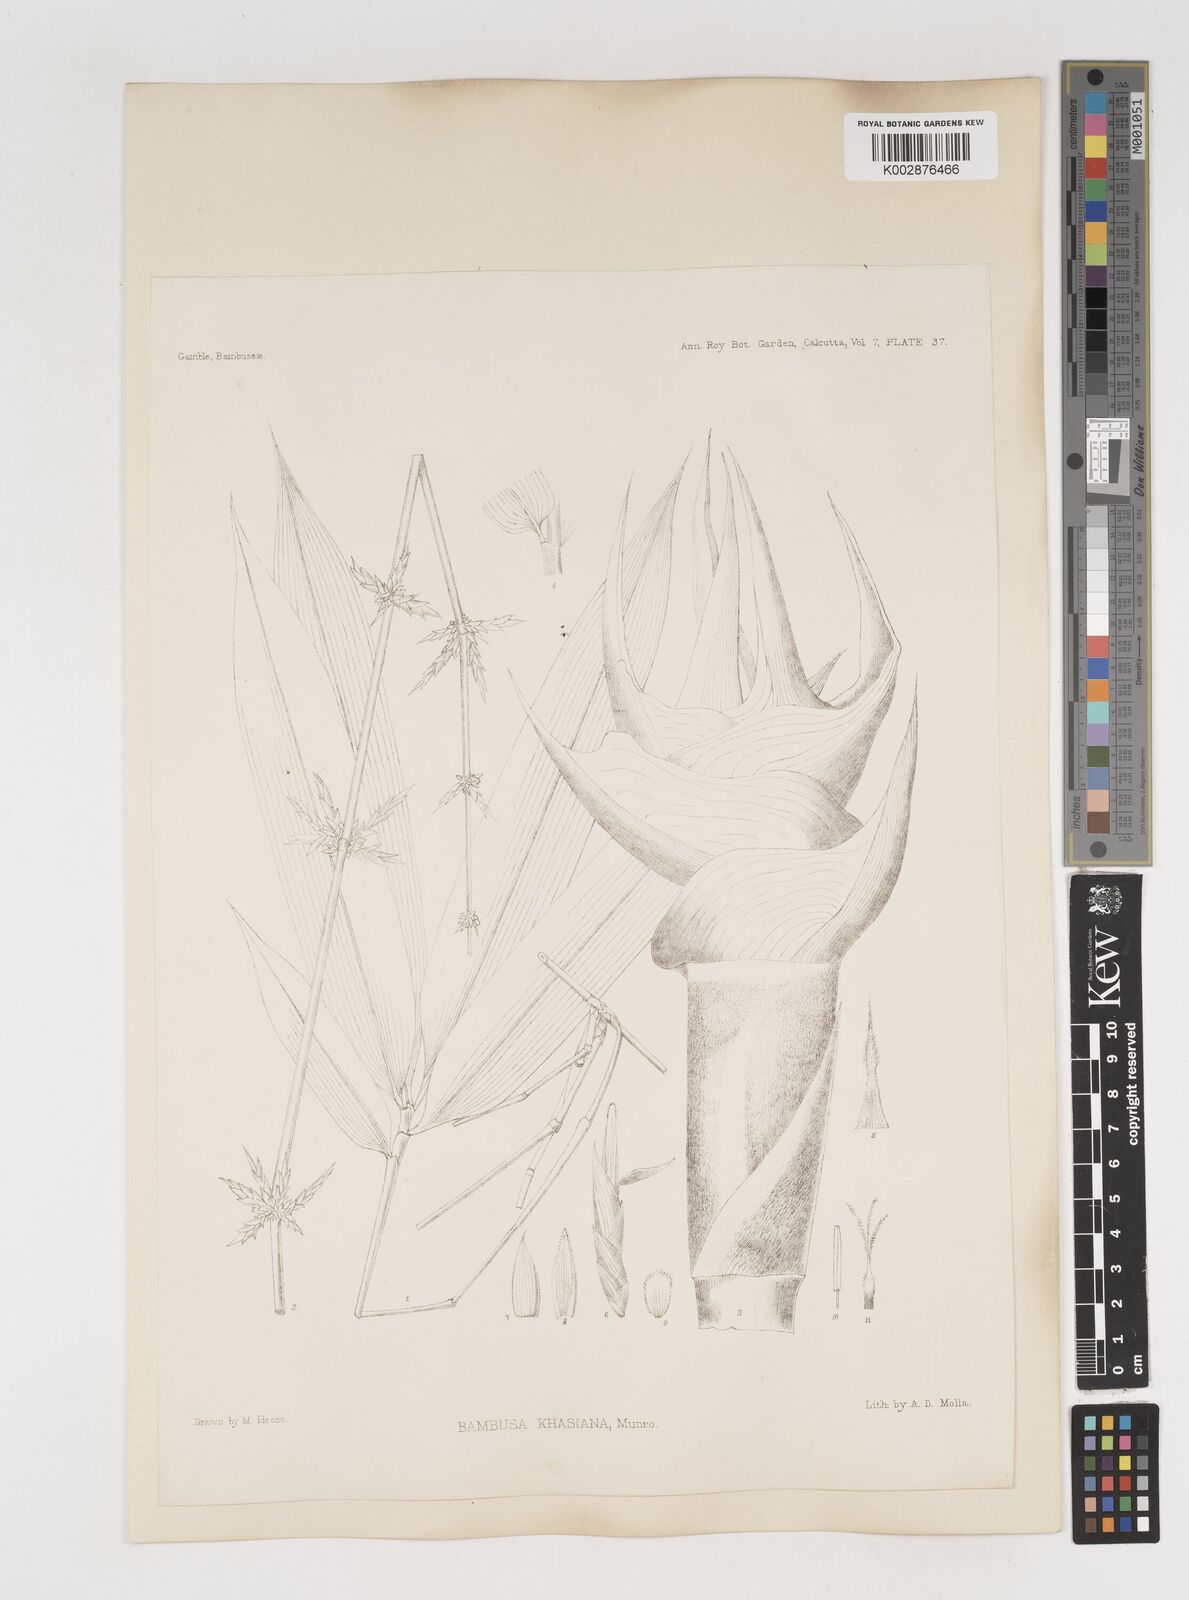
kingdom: Plantae
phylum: Tracheophyta
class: Liliopsida
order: Poales
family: Poaceae
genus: Bambusa
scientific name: Bambusa khasiana
